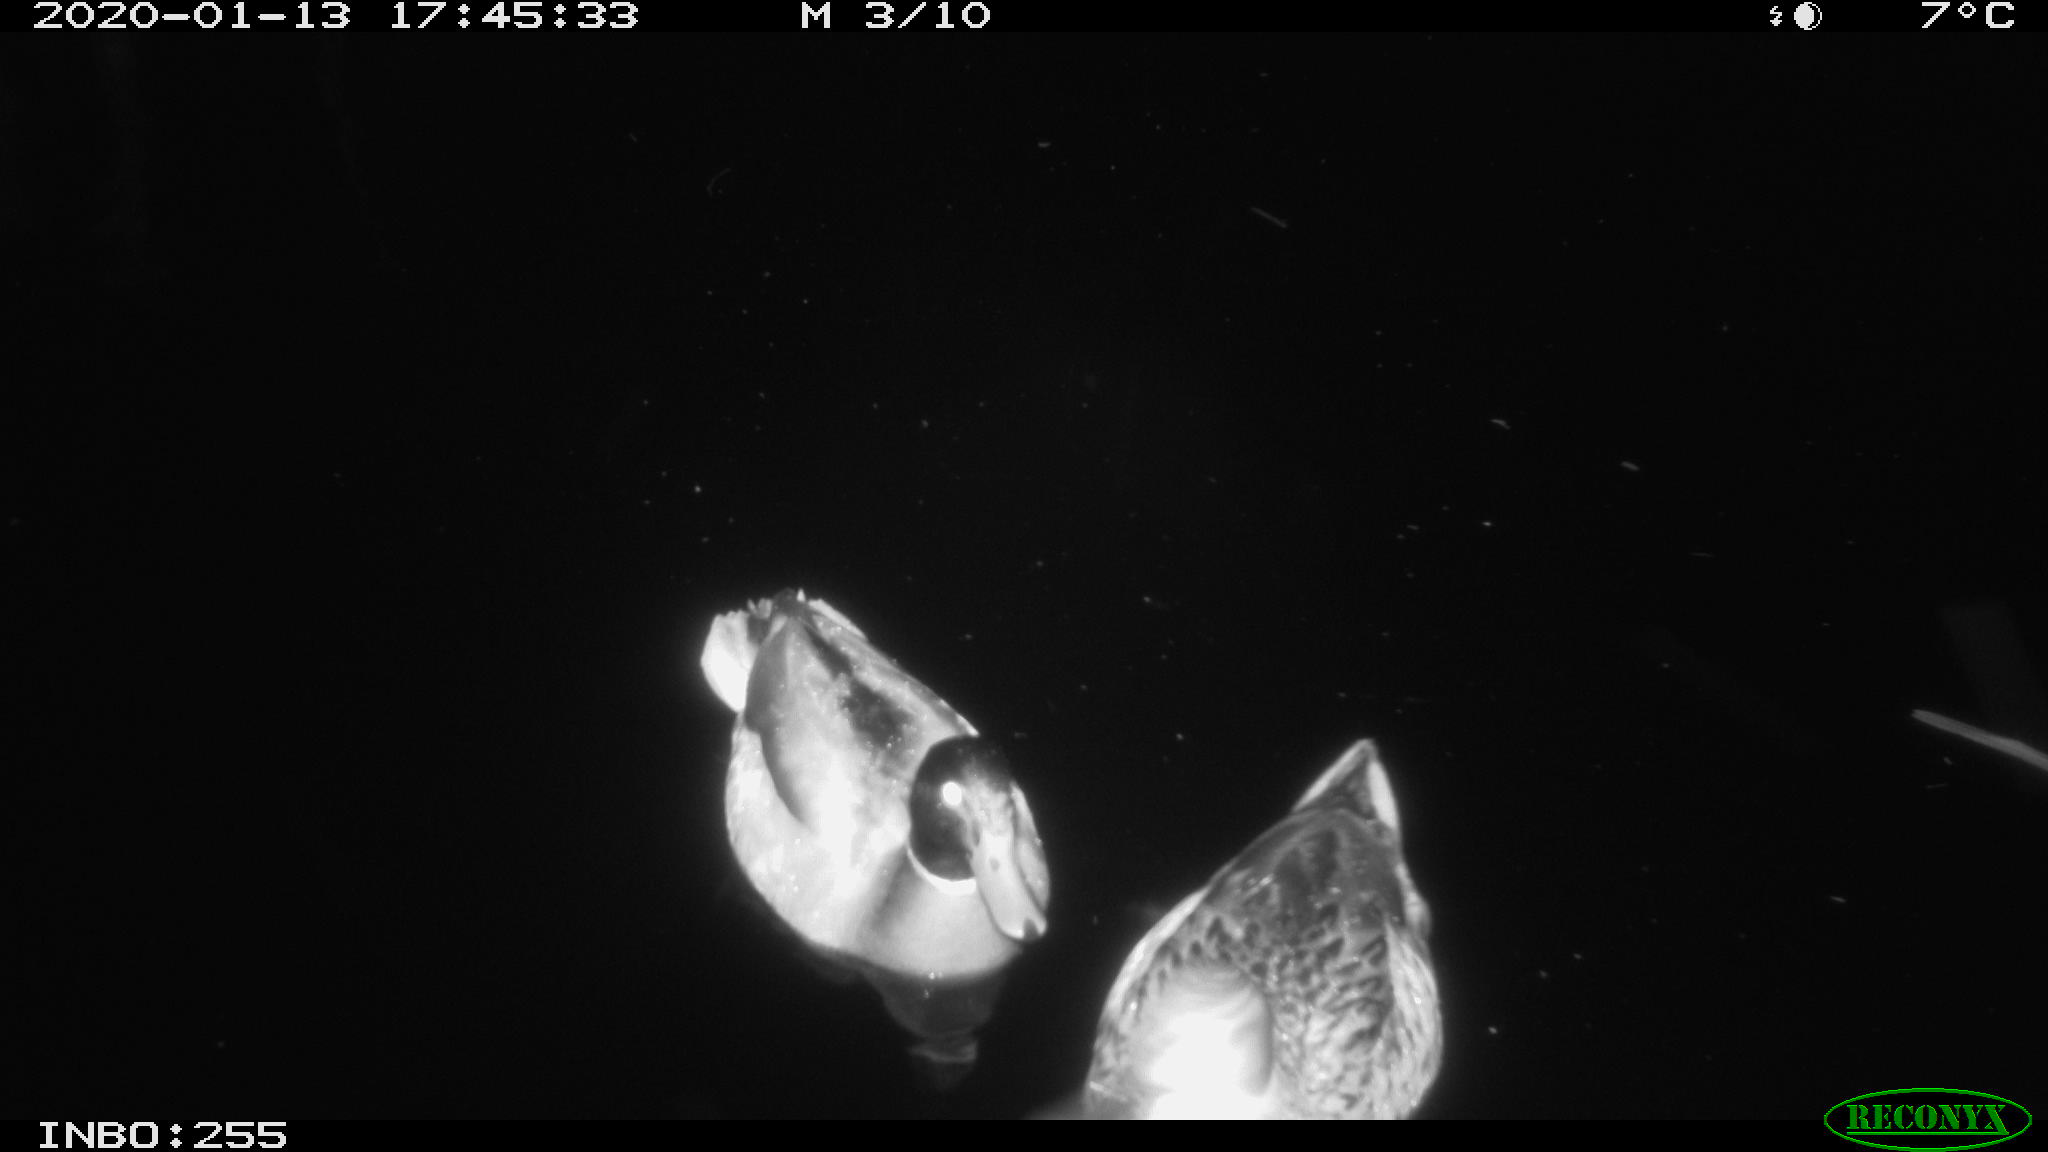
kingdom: Animalia
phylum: Chordata
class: Aves
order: Anseriformes
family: Anatidae
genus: Anas
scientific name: Anas platyrhynchos
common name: Mallard
